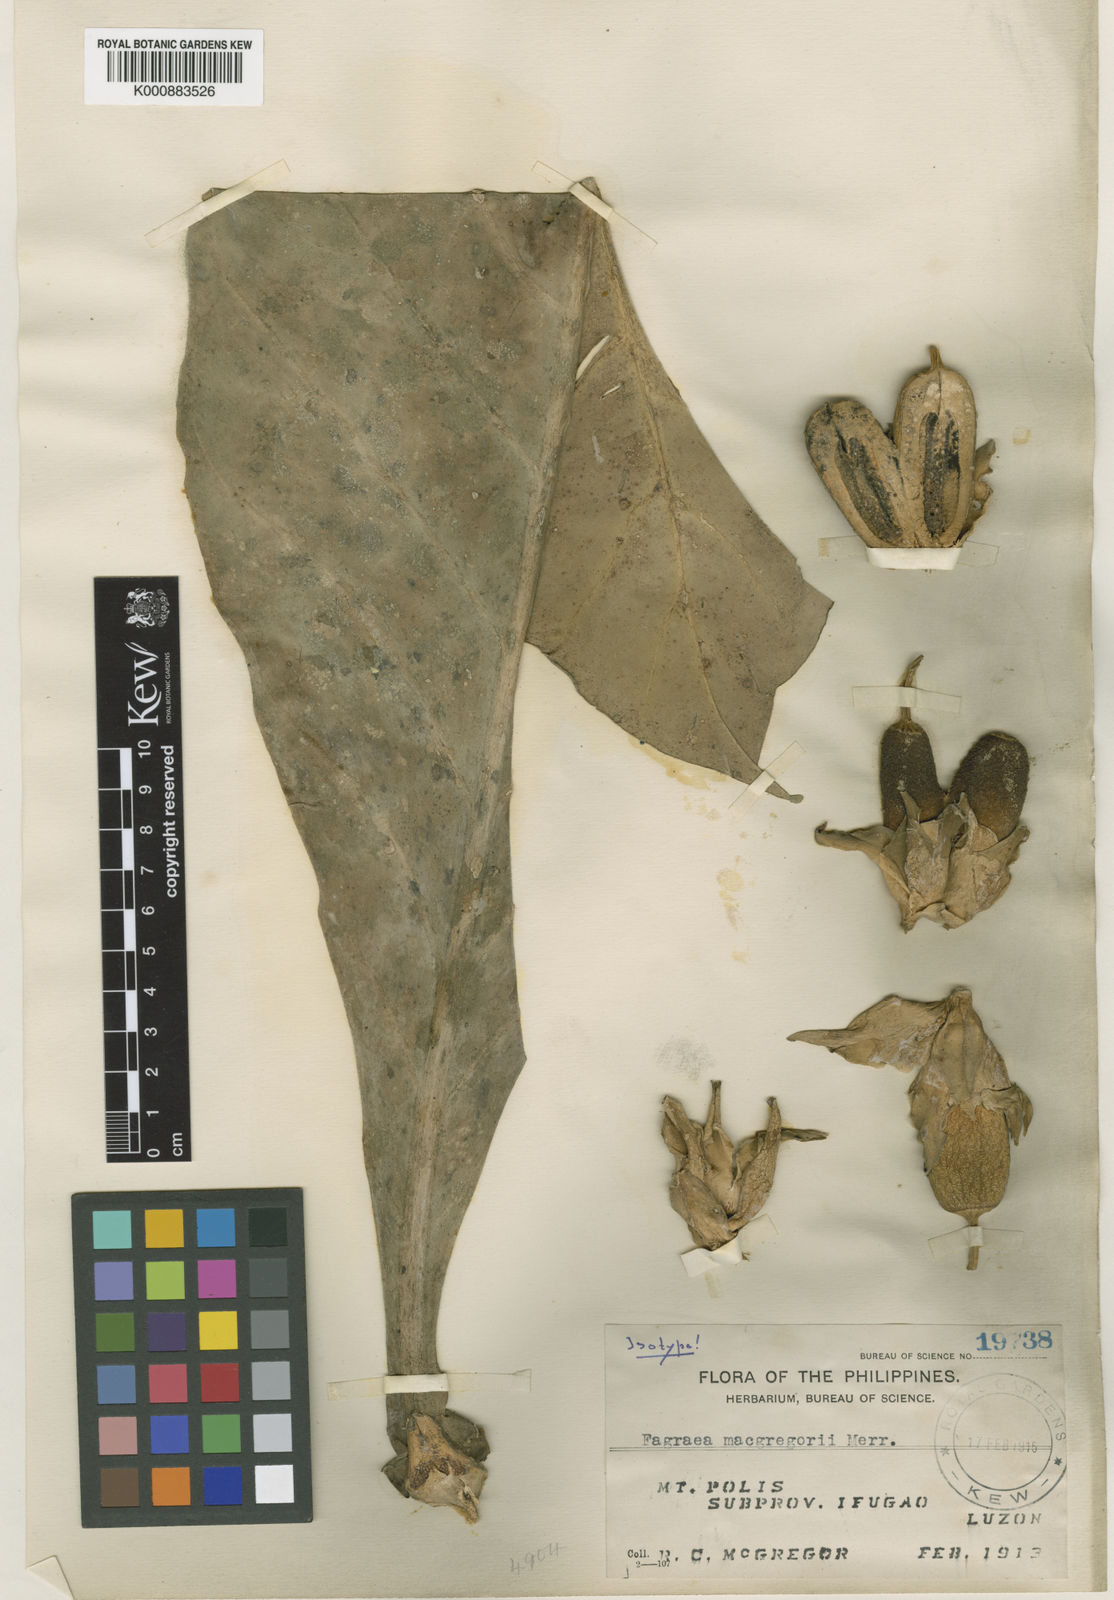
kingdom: Plantae
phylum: Tracheophyta
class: Magnoliopsida
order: Gentianales
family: Gentianaceae
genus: Fagraea
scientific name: Fagraea longiflora
